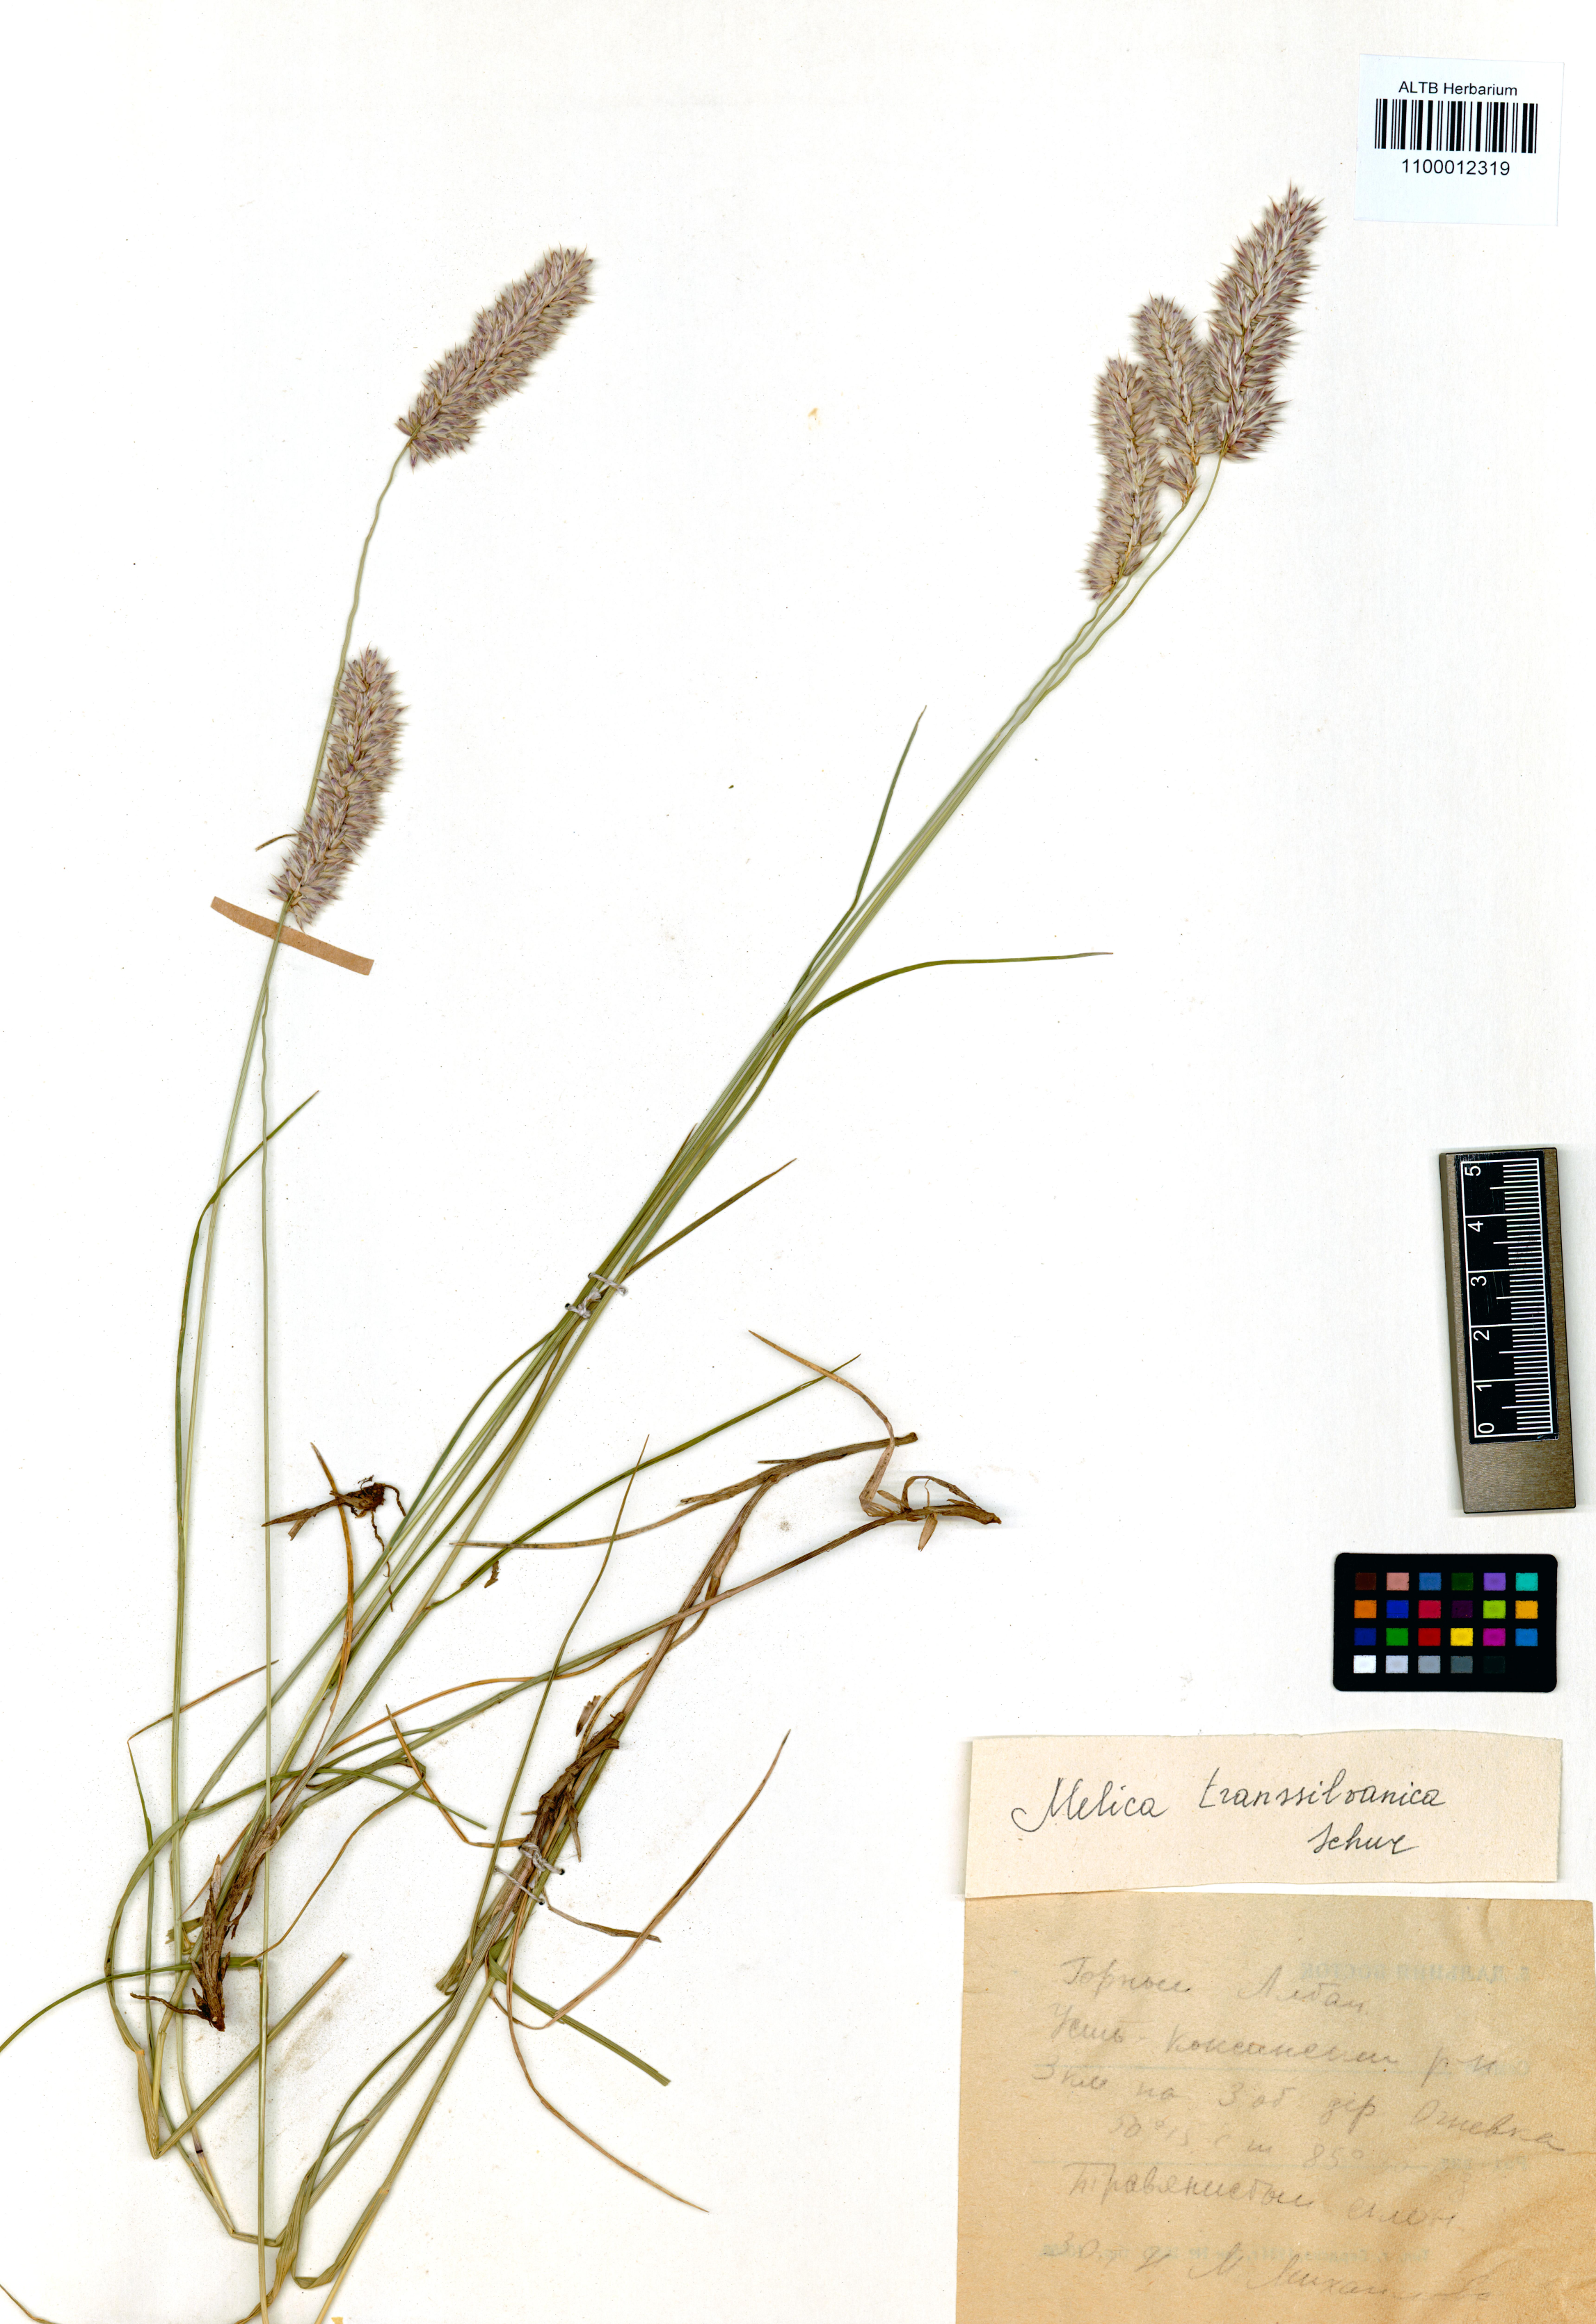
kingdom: Plantae
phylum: Tracheophyta
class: Liliopsida
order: Poales
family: Poaceae
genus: Melica
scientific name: Melica transsilvanica
